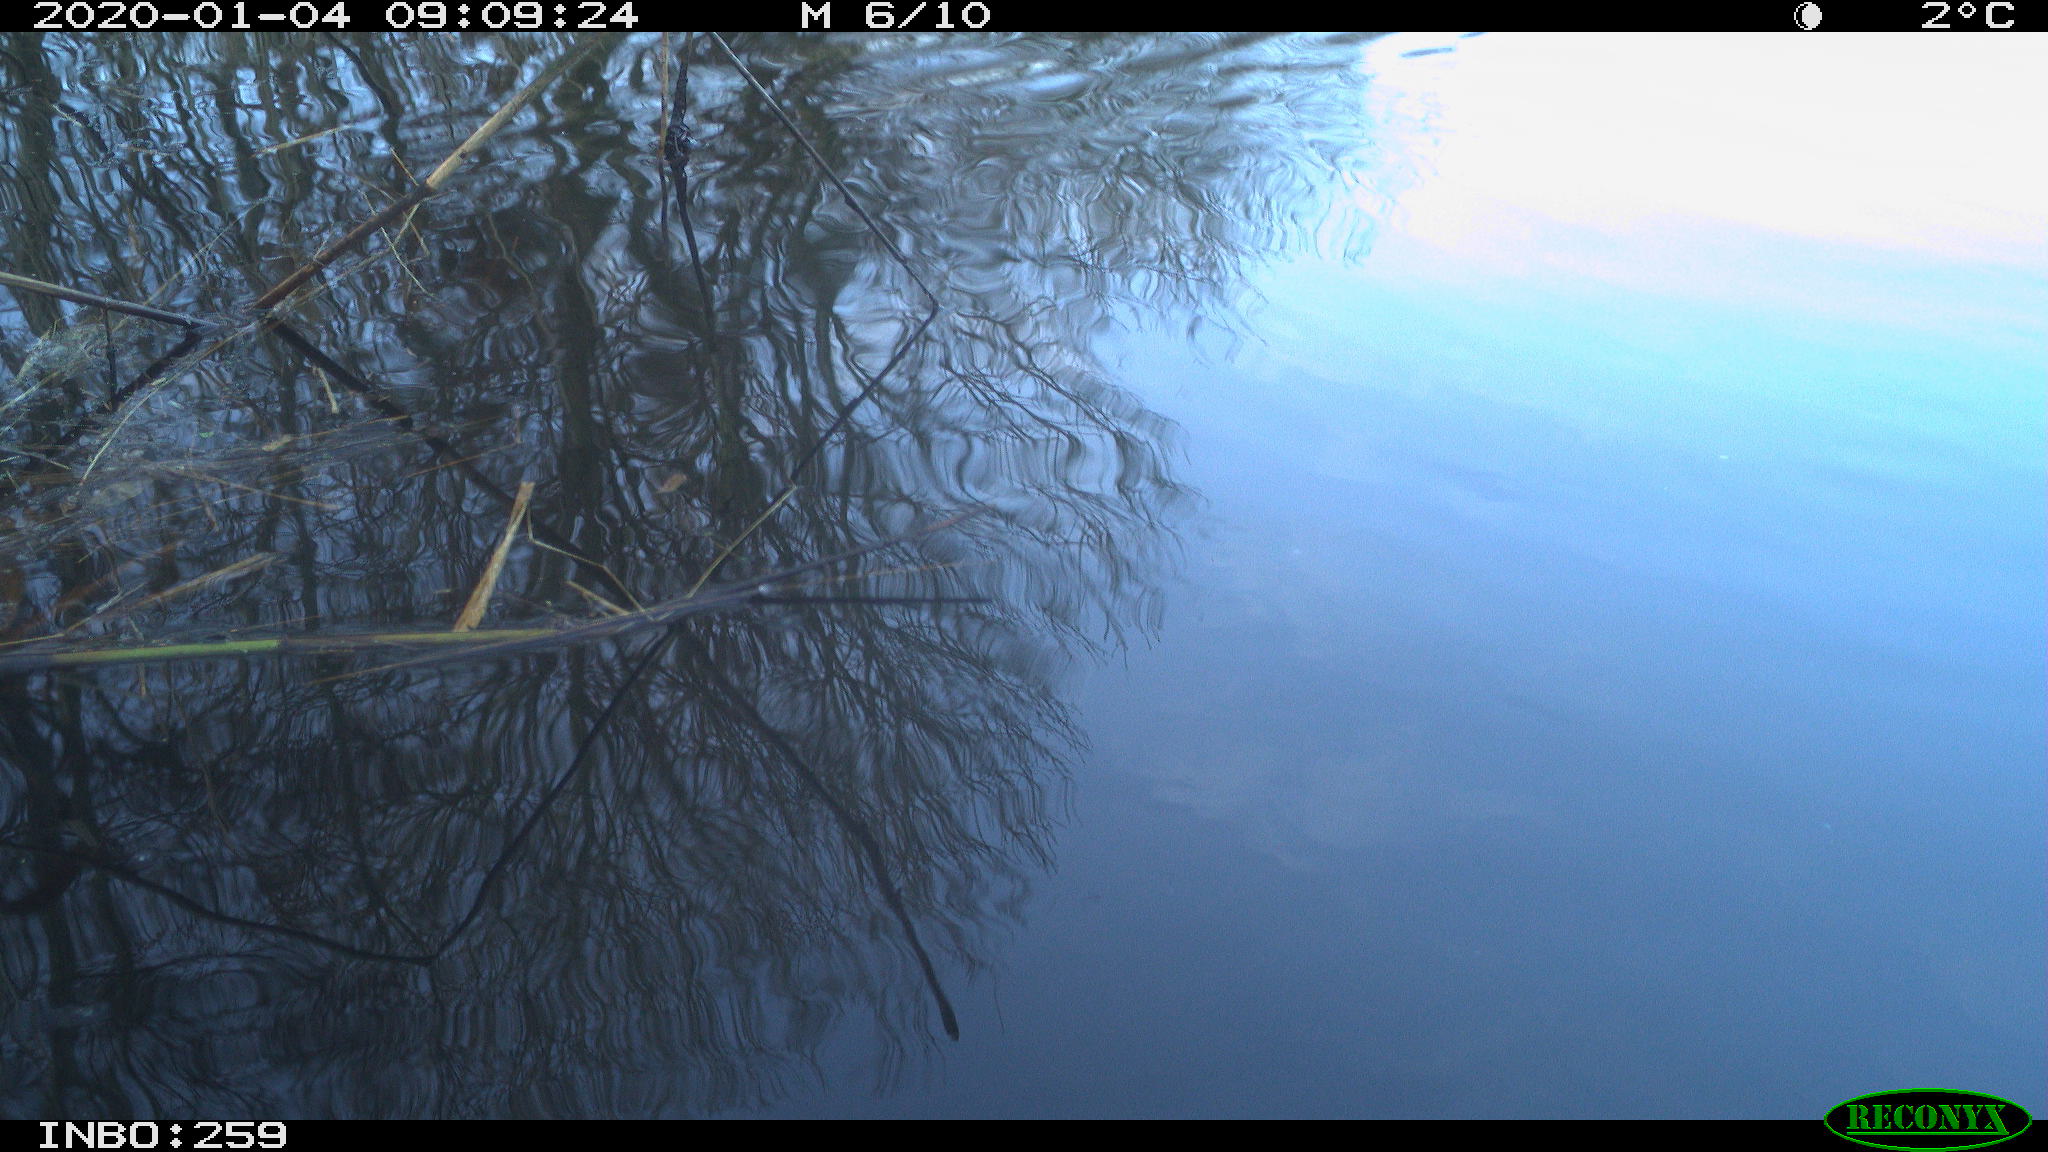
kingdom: Animalia
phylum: Chordata
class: Aves
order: Gruiformes
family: Rallidae
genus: Gallinula
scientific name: Gallinula chloropus
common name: Common moorhen
